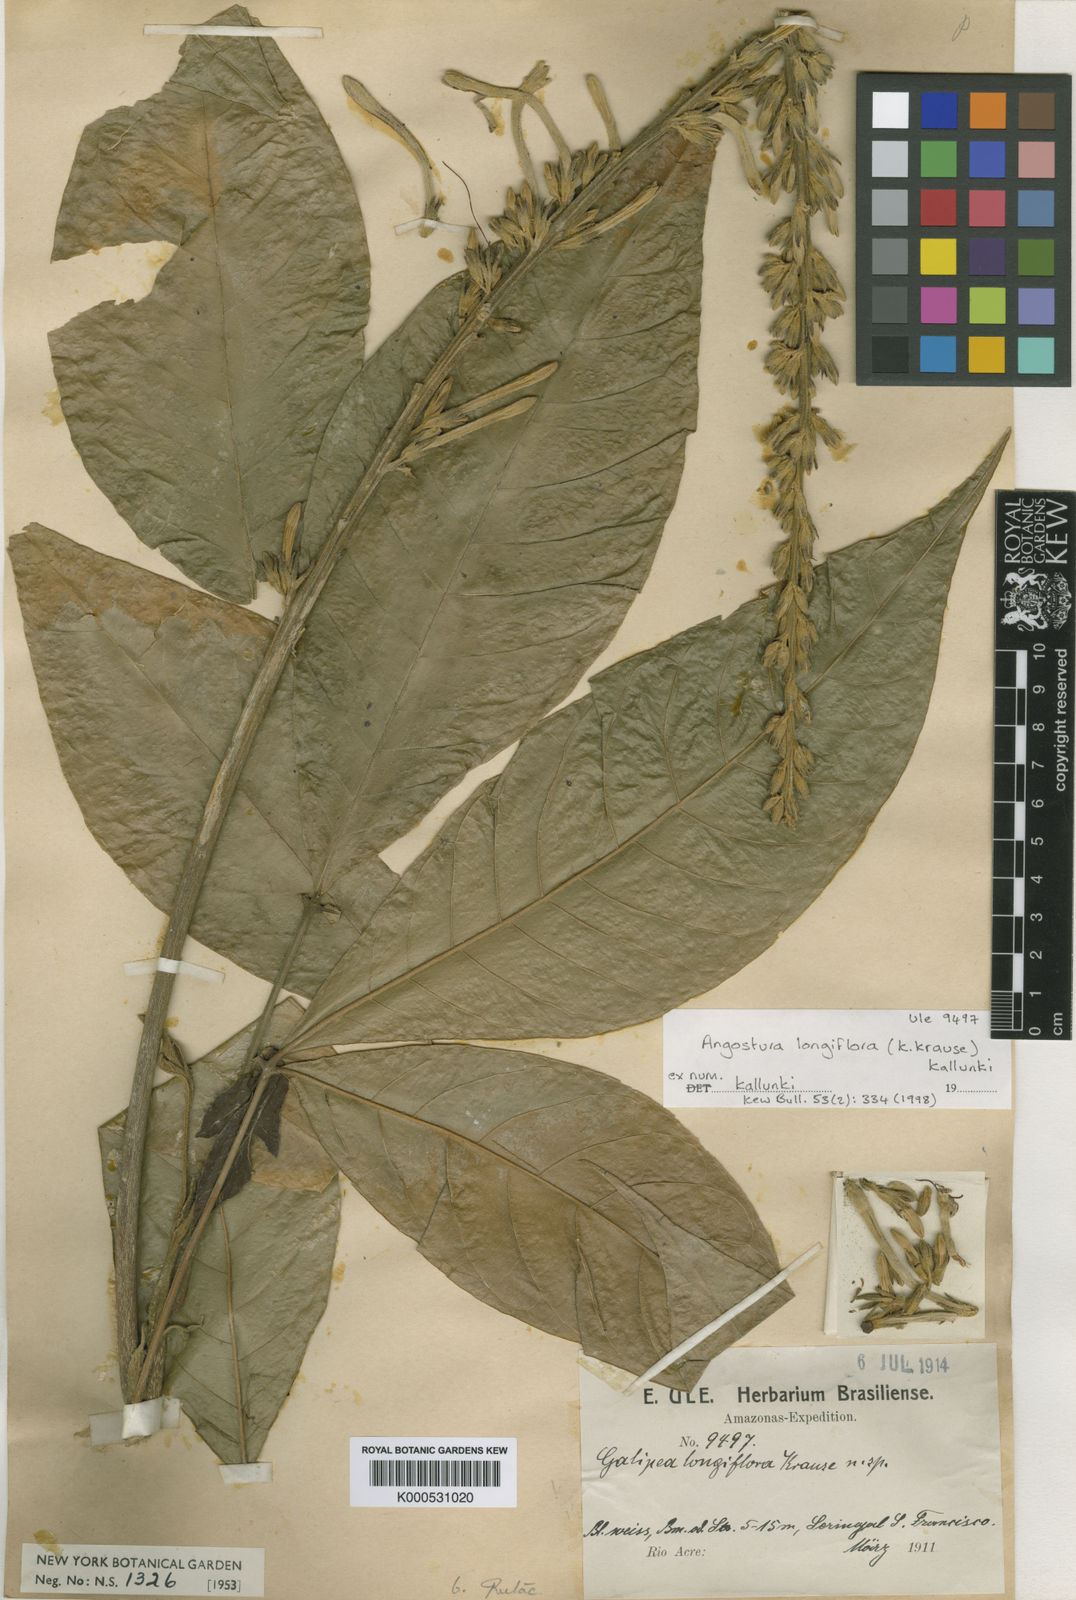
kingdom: Plantae
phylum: Tracheophyta
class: Magnoliopsida
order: Sapindales
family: Rutaceae
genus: Angostura
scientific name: Angostura longiflora
